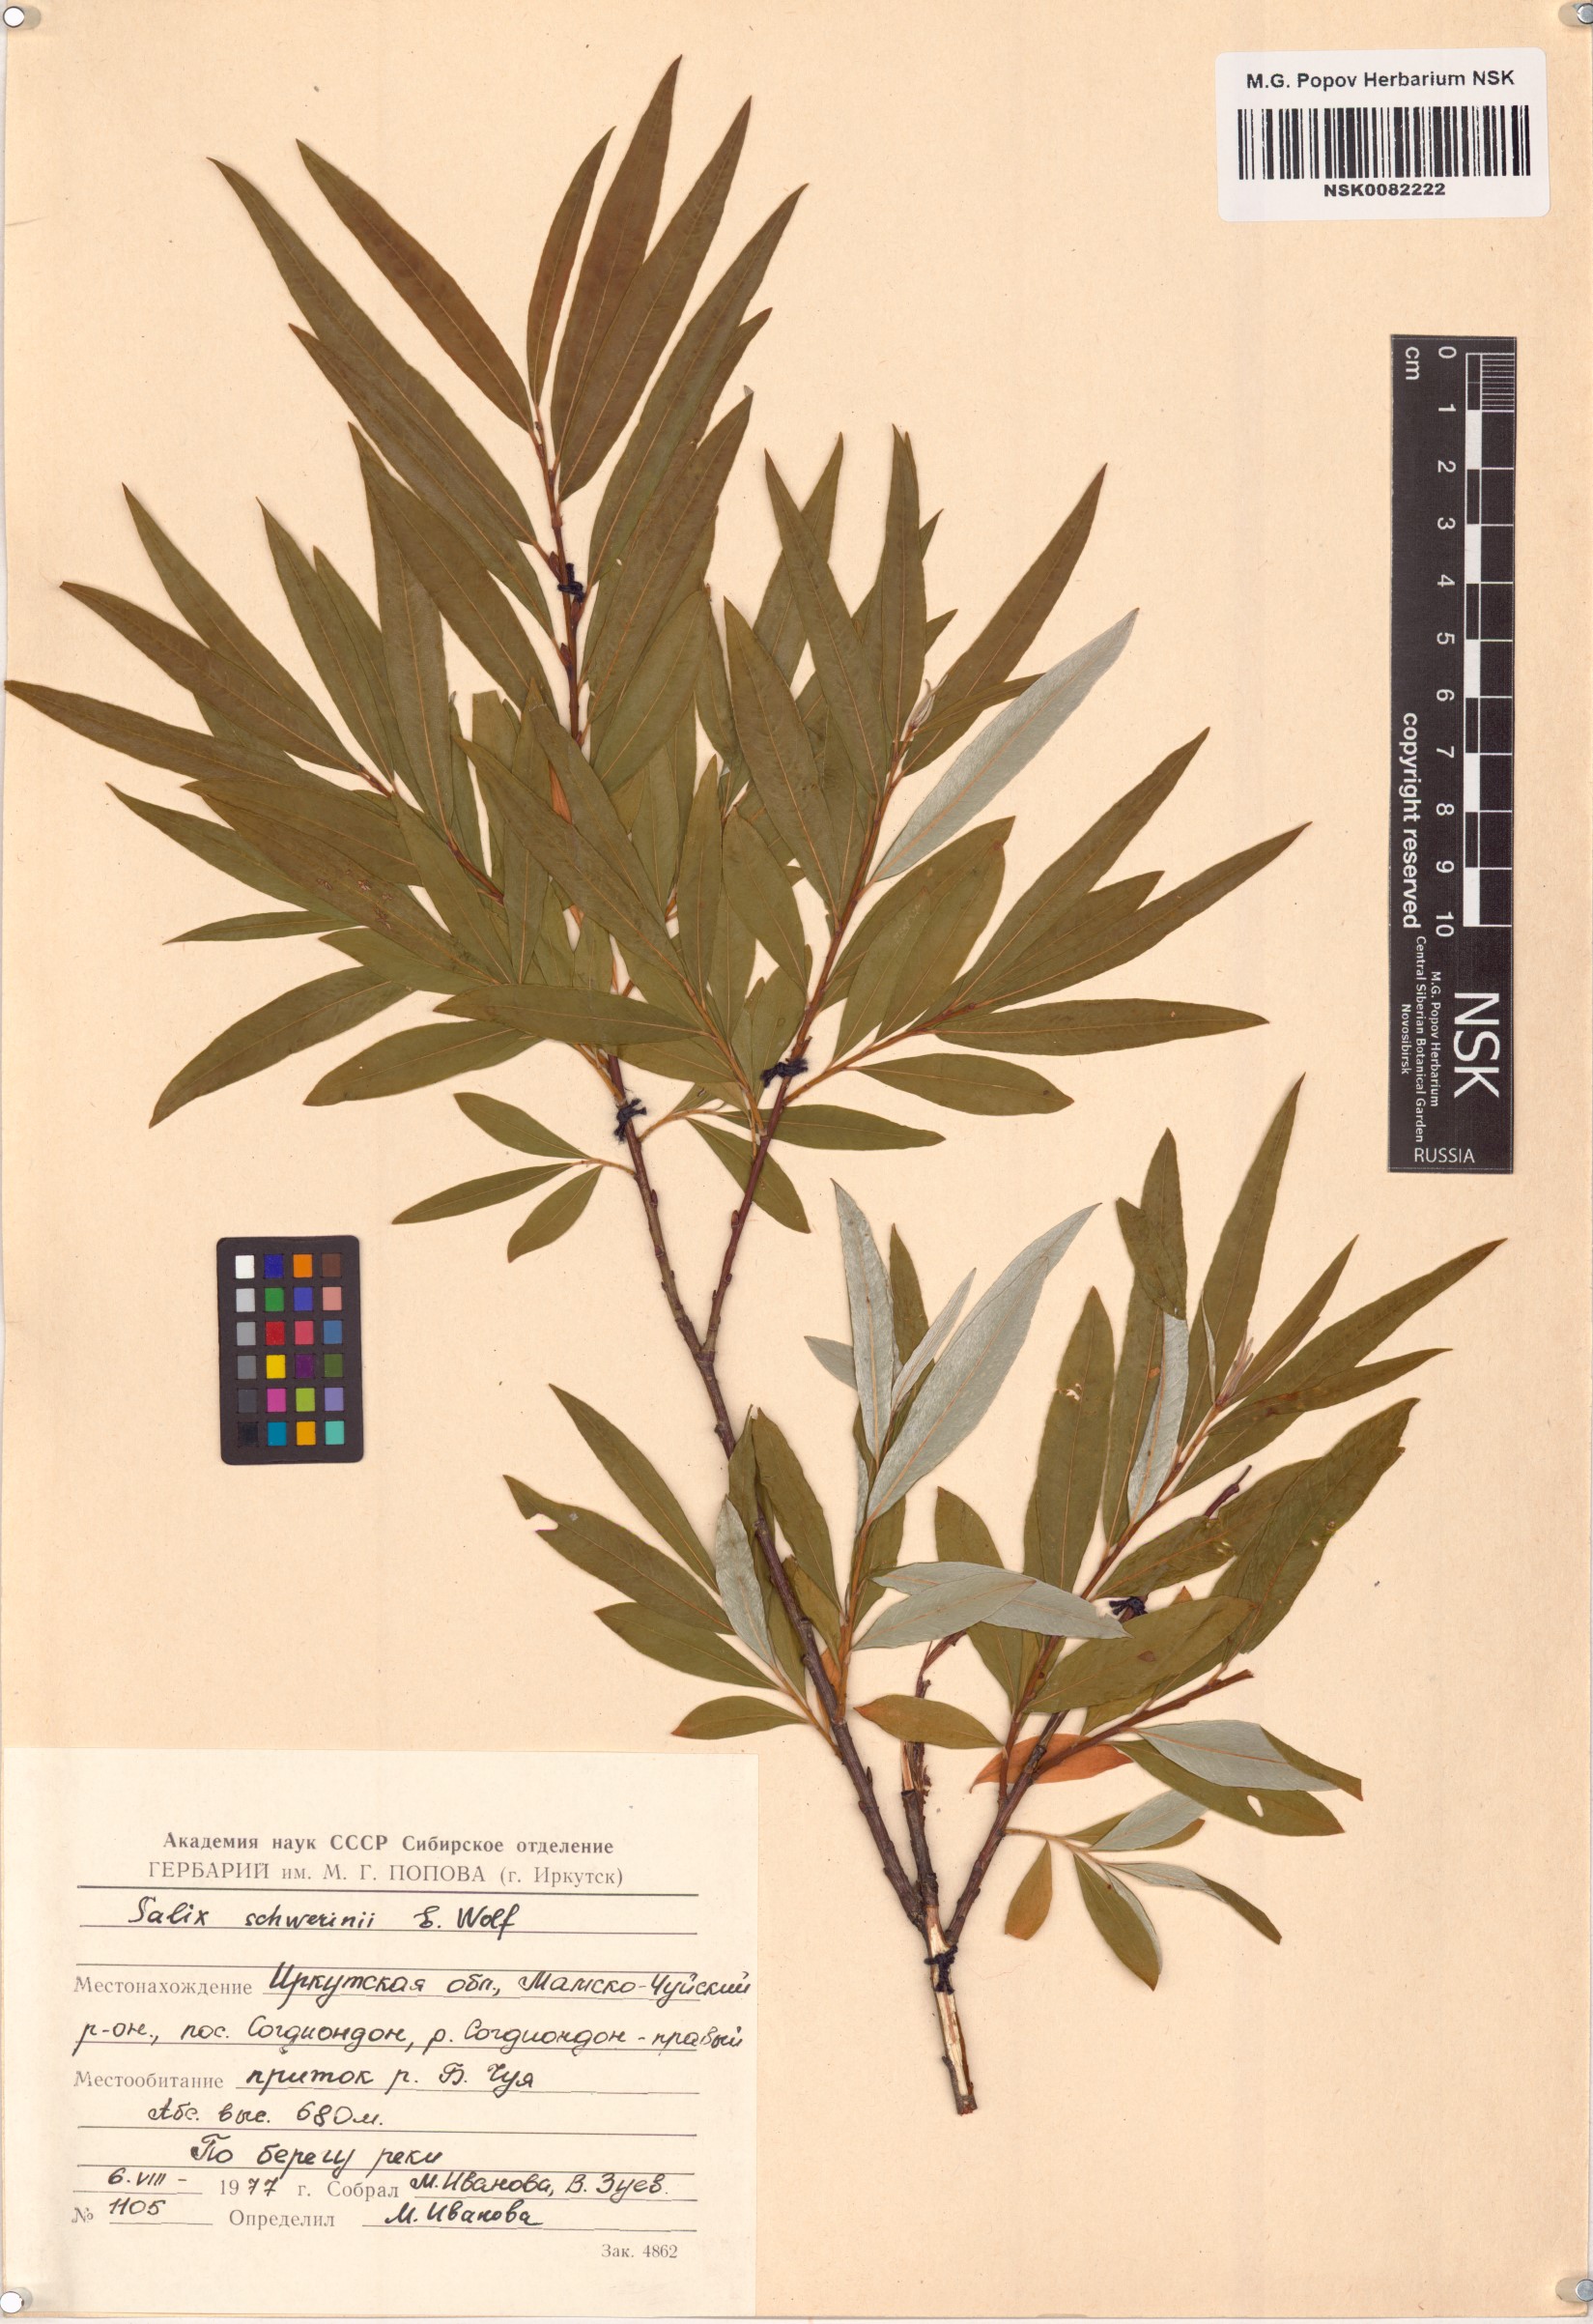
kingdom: Plantae
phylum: Tracheophyta
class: Magnoliopsida
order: Malpighiales
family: Salicaceae
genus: Salix
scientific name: Salix schwerinii
